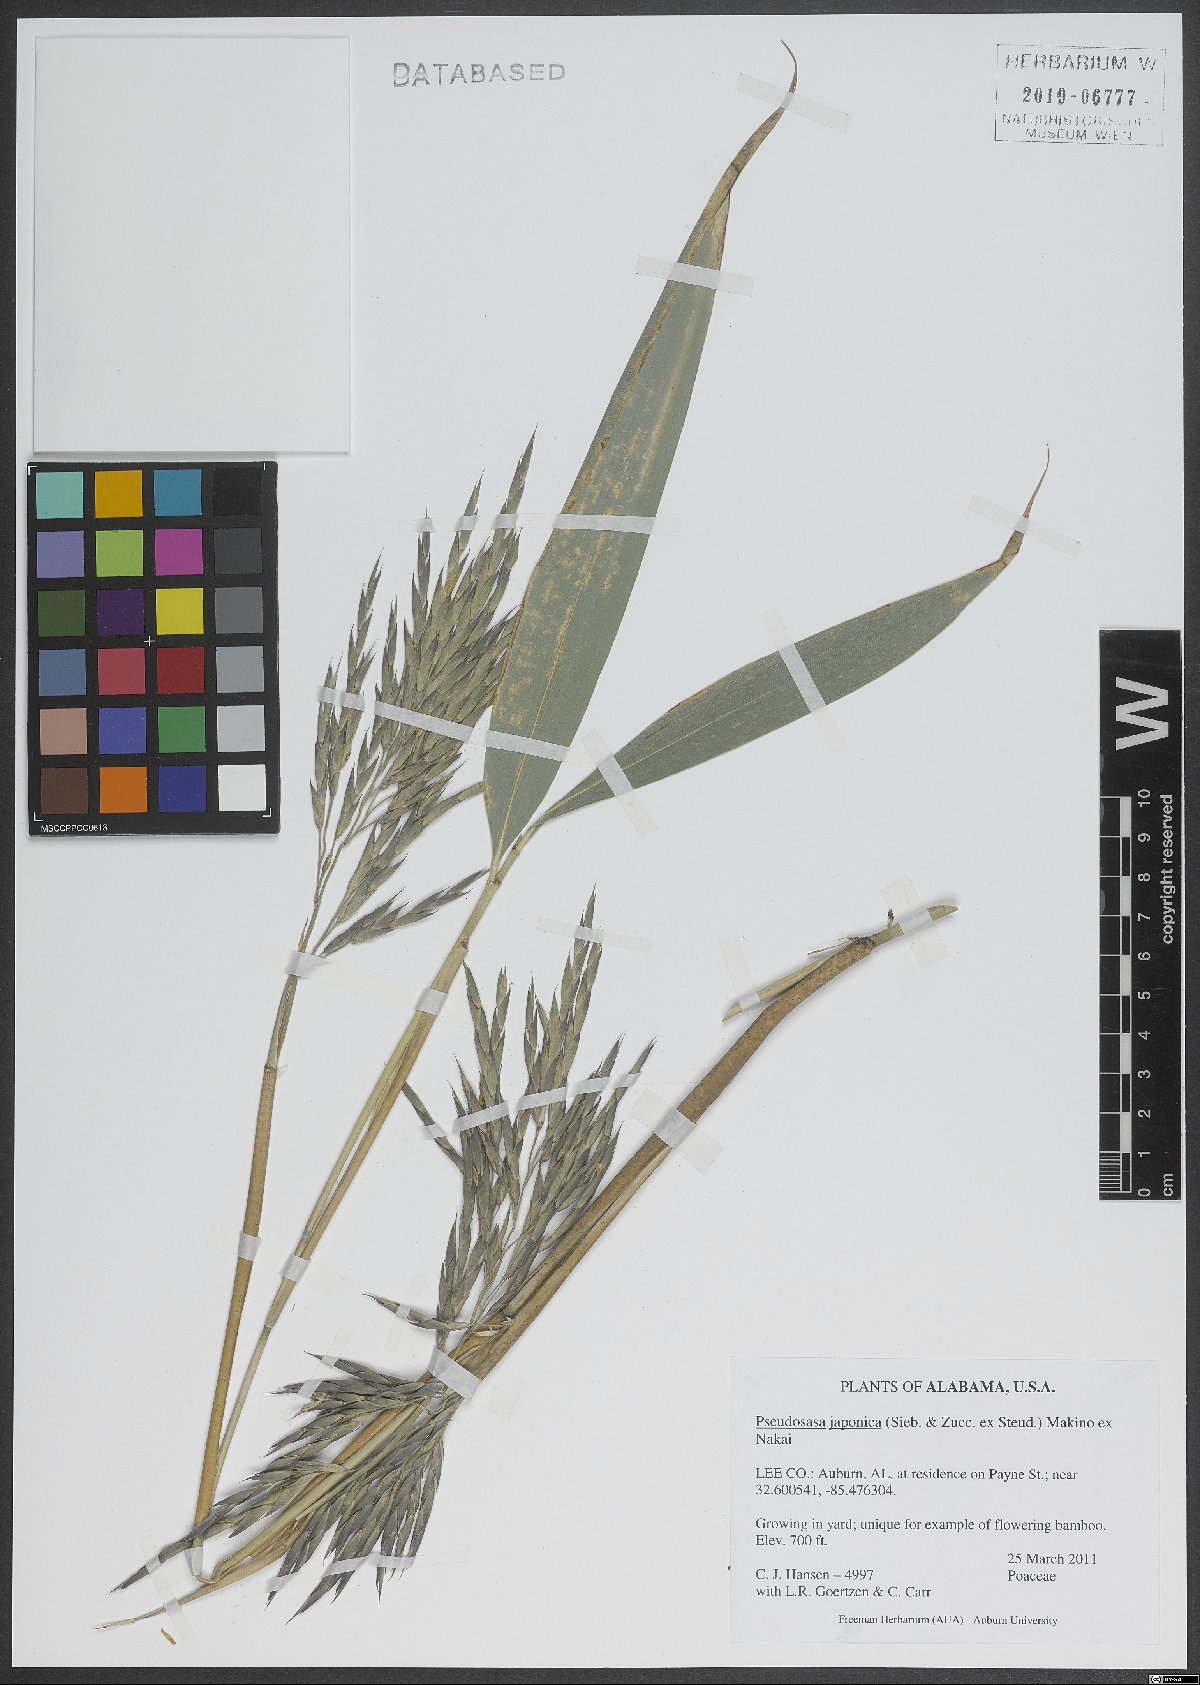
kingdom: Plantae
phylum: Tracheophyta
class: Liliopsida
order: Poales
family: Poaceae
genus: Pseudosasa
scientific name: Pseudosasa japonica
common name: Arrow bamboo
